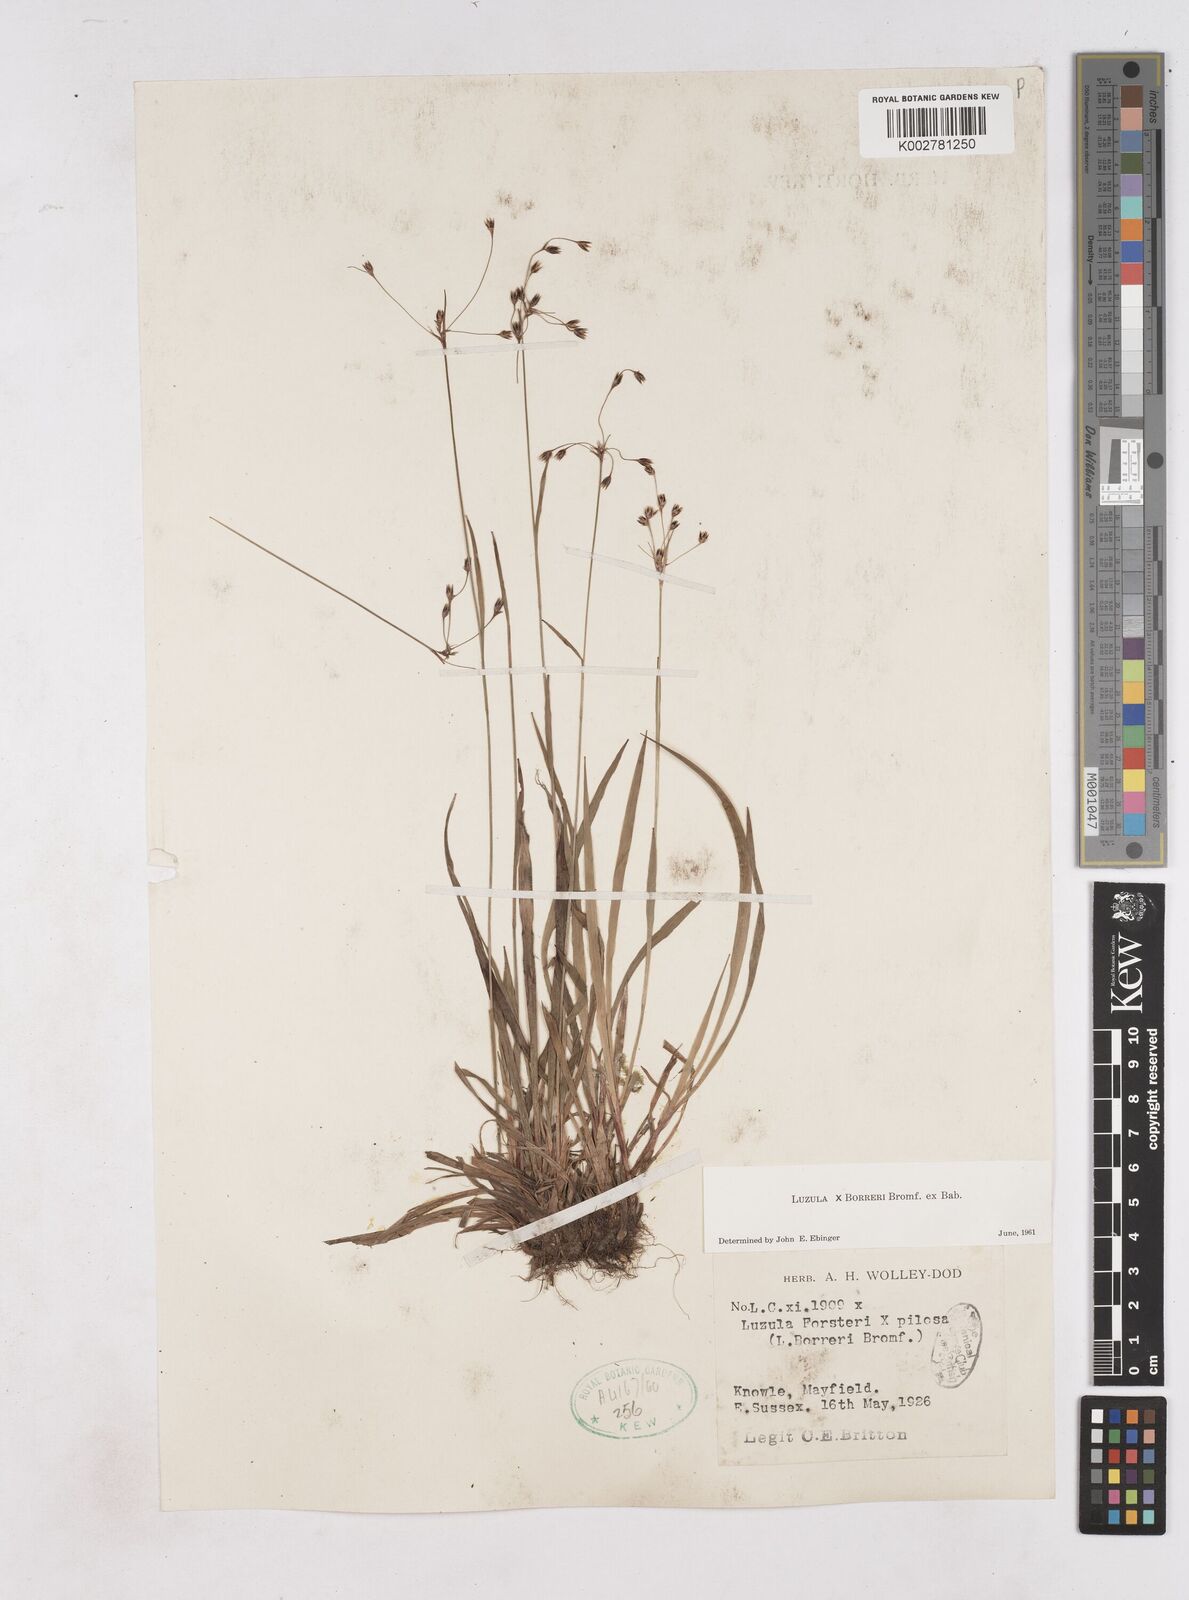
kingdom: Plantae
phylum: Tracheophyta
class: Liliopsida
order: Poales
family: Juncaceae
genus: Luzula
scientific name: Luzula forsteri
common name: Southern wood-rush
